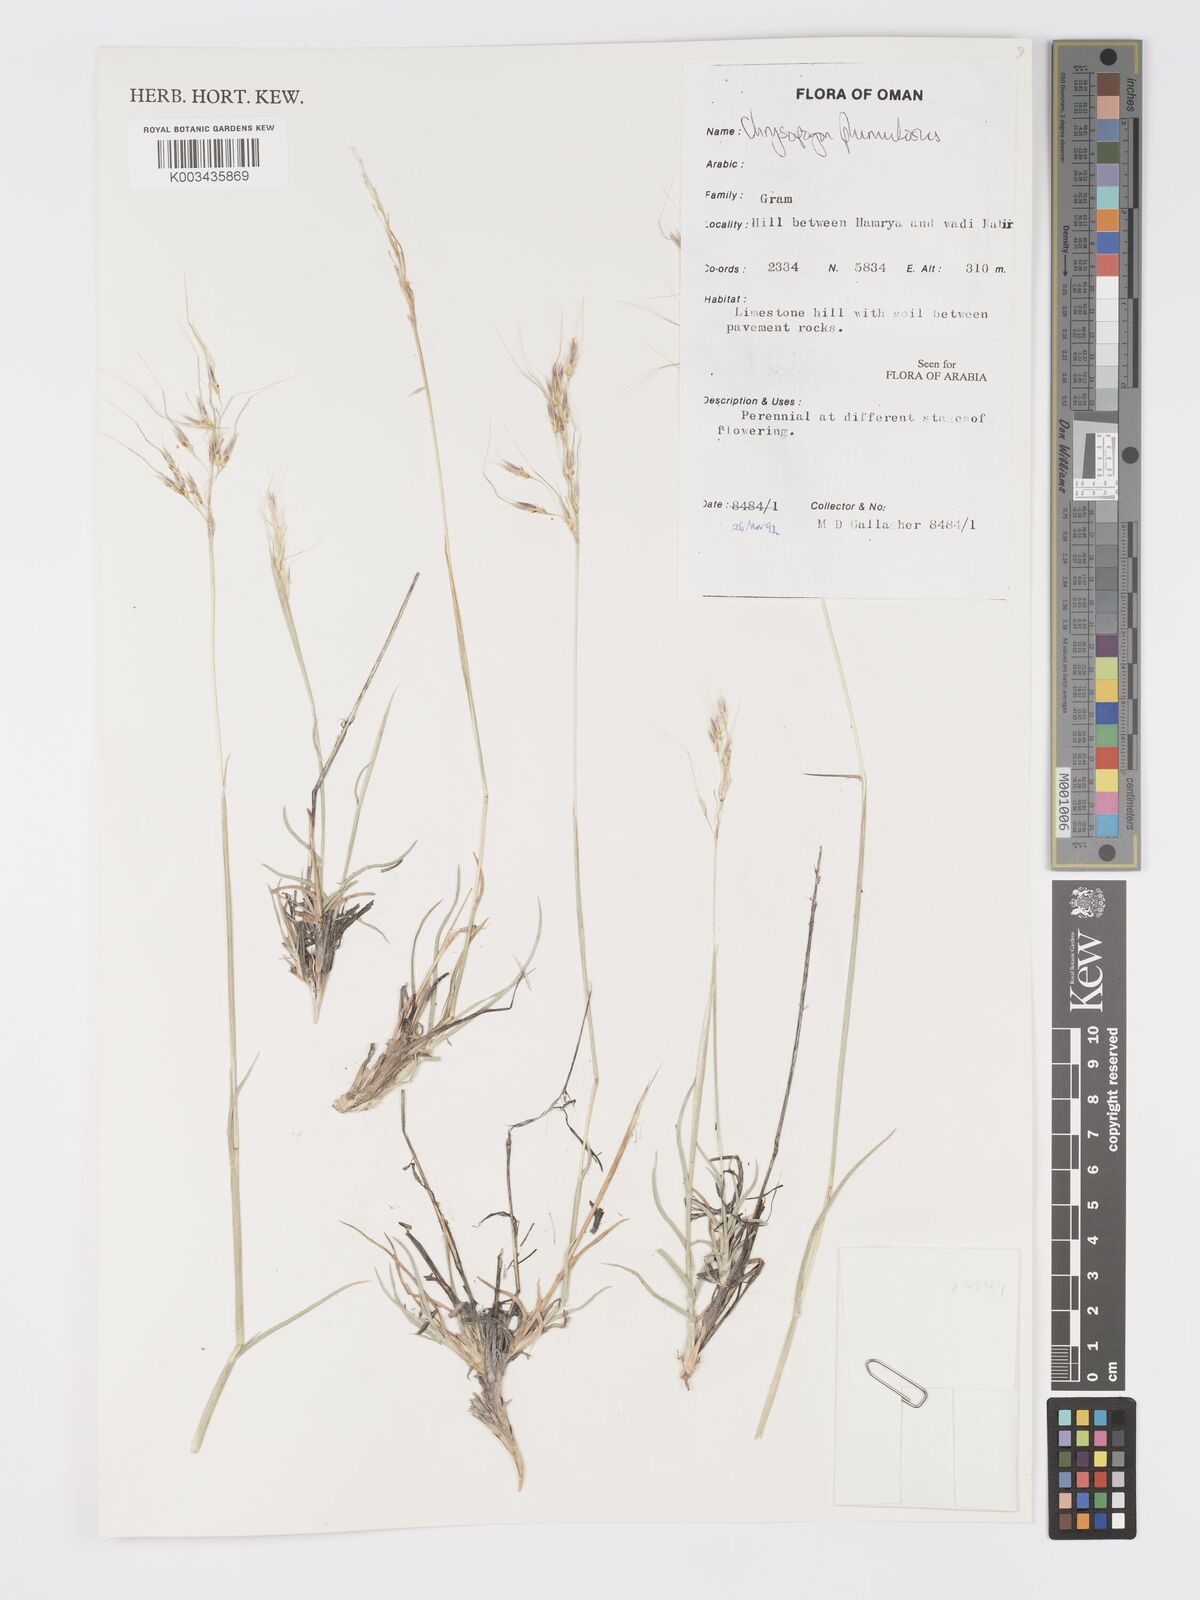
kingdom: Plantae
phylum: Tracheophyta
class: Liliopsida
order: Poales
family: Poaceae
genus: Chrysopogon
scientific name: Chrysopogon plumulosus
